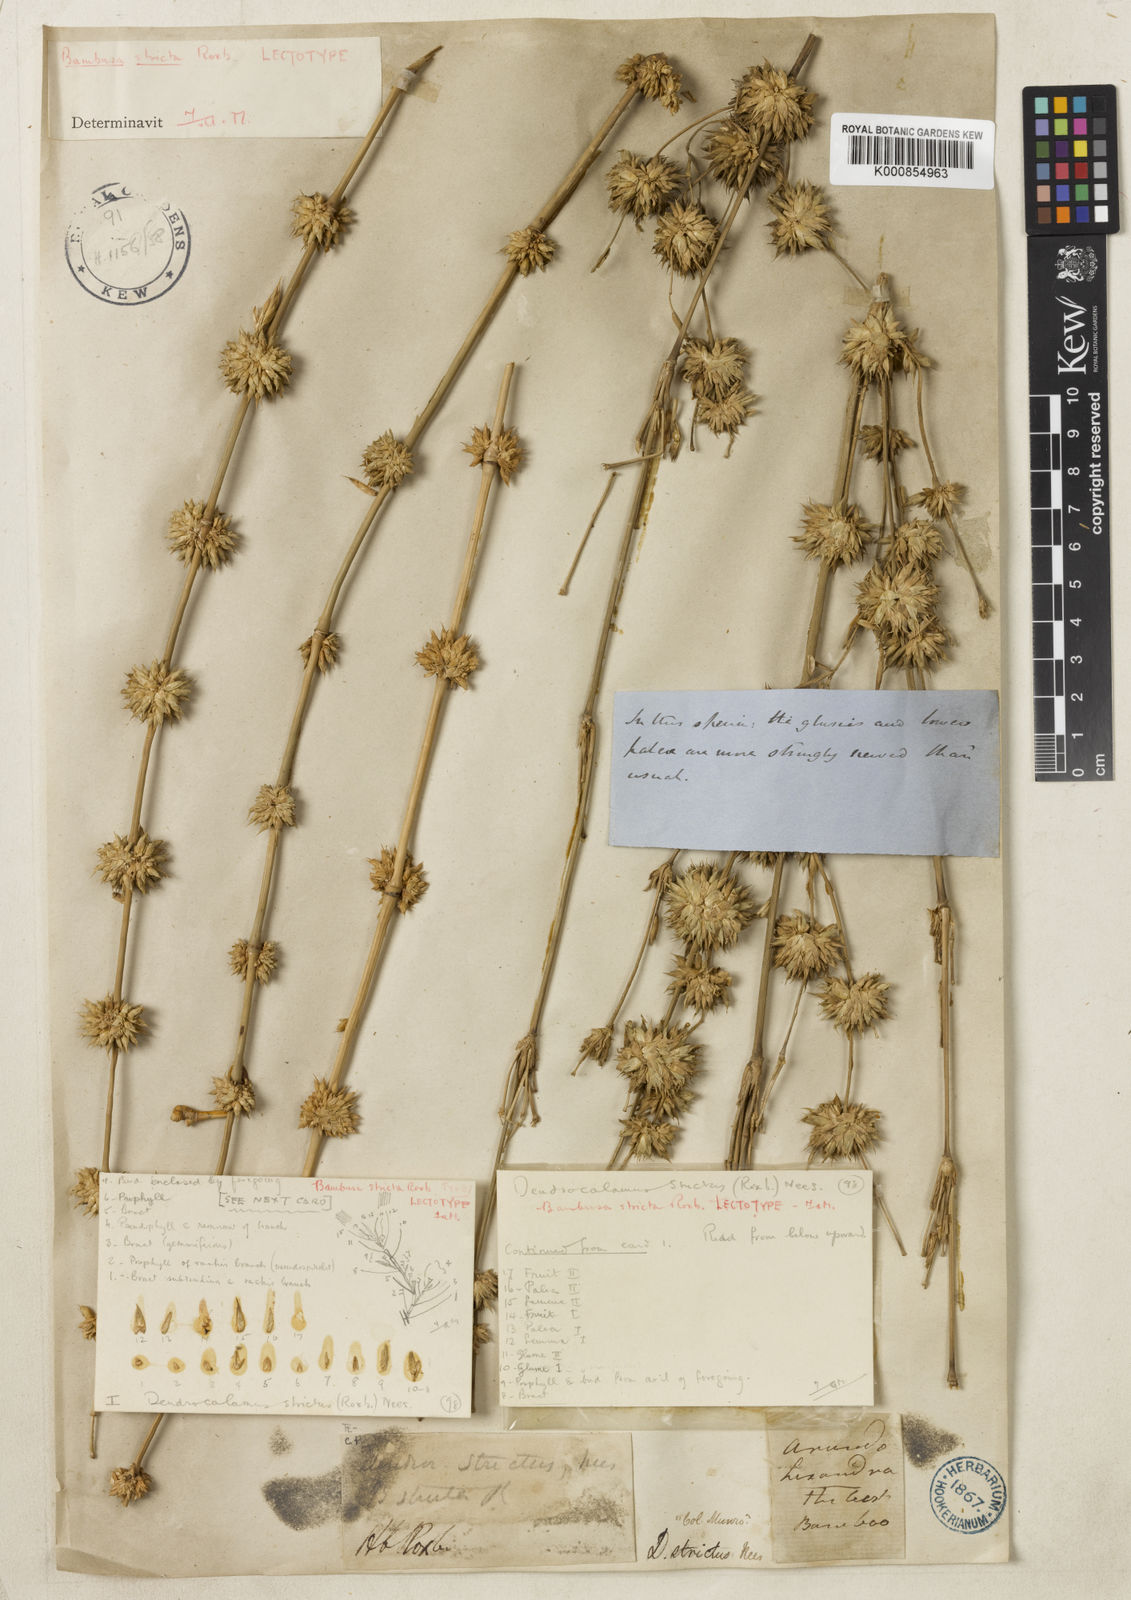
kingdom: Plantae
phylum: Tracheophyta
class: Liliopsida
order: Poales
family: Poaceae
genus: Dendrocalamus
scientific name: Dendrocalamus strictus
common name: Male bamboo
